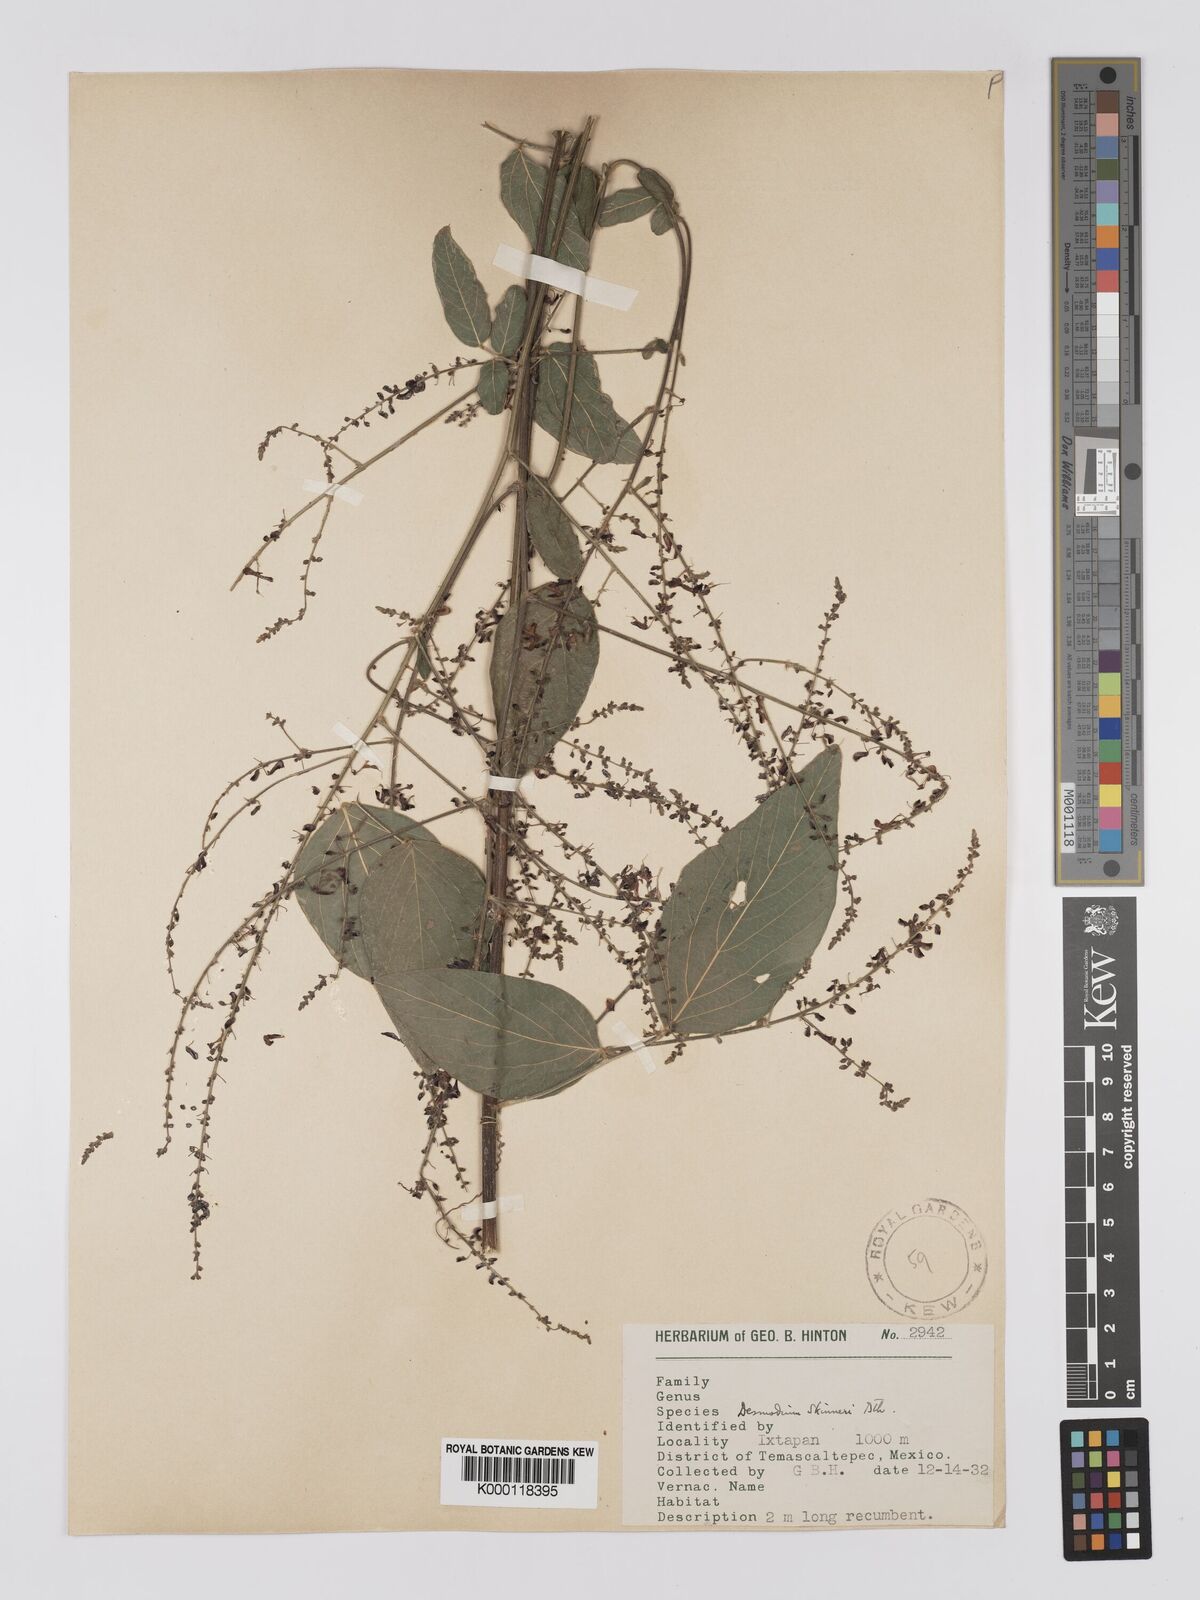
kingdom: Plantae
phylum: Tracheophyta
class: Magnoliopsida
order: Fabales
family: Fabaceae
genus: Desmodium
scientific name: Desmodium skinneri
